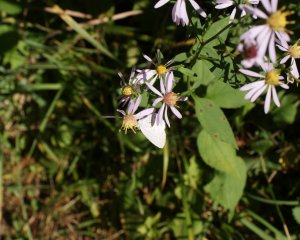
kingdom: Animalia
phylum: Arthropoda
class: Insecta
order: Lepidoptera
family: Lycaenidae
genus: Celastrina
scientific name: Celastrina
